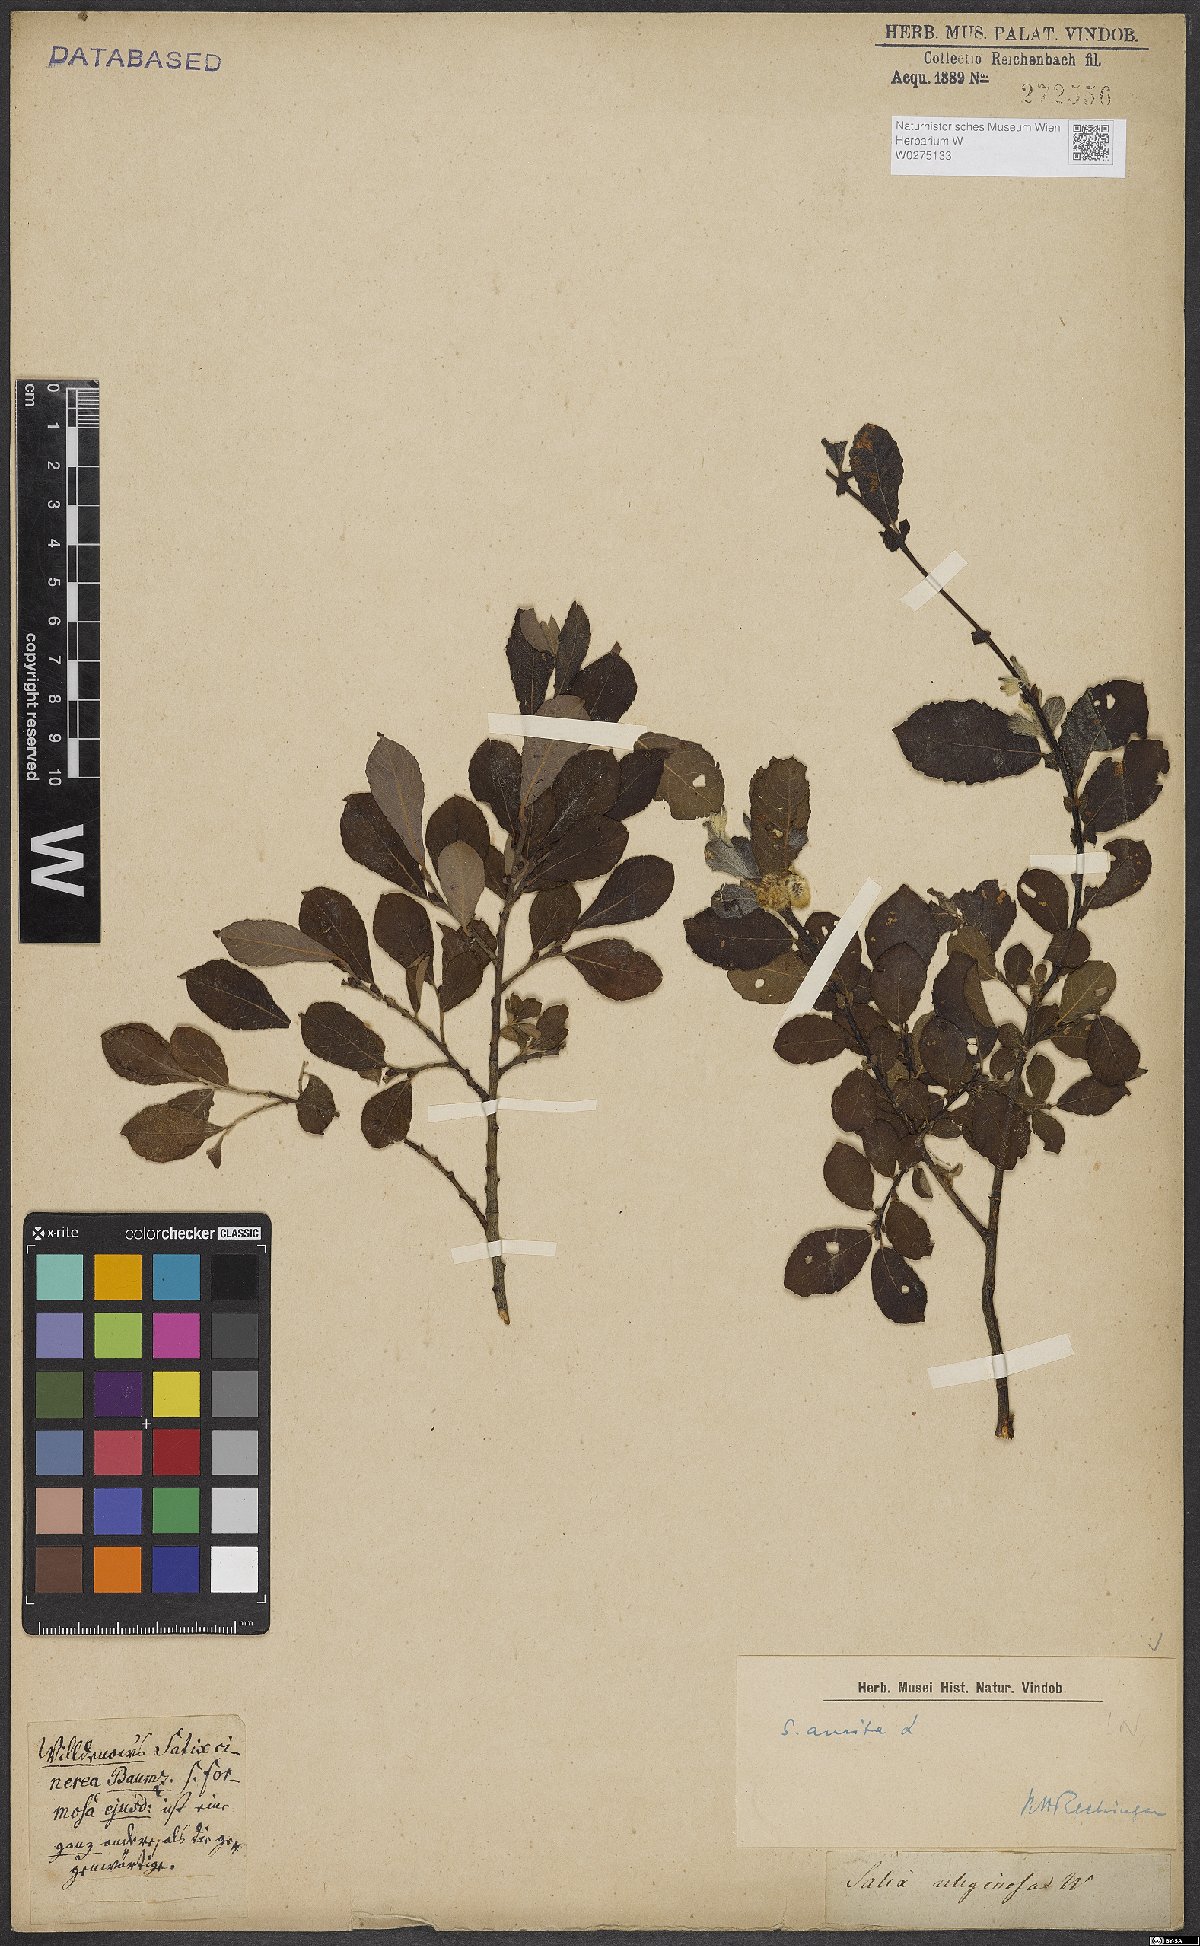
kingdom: Plantae
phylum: Tracheophyta
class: Magnoliopsida
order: Malpighiales
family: Salicaceae
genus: Salix
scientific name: Salix aurita
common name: Eared willow
